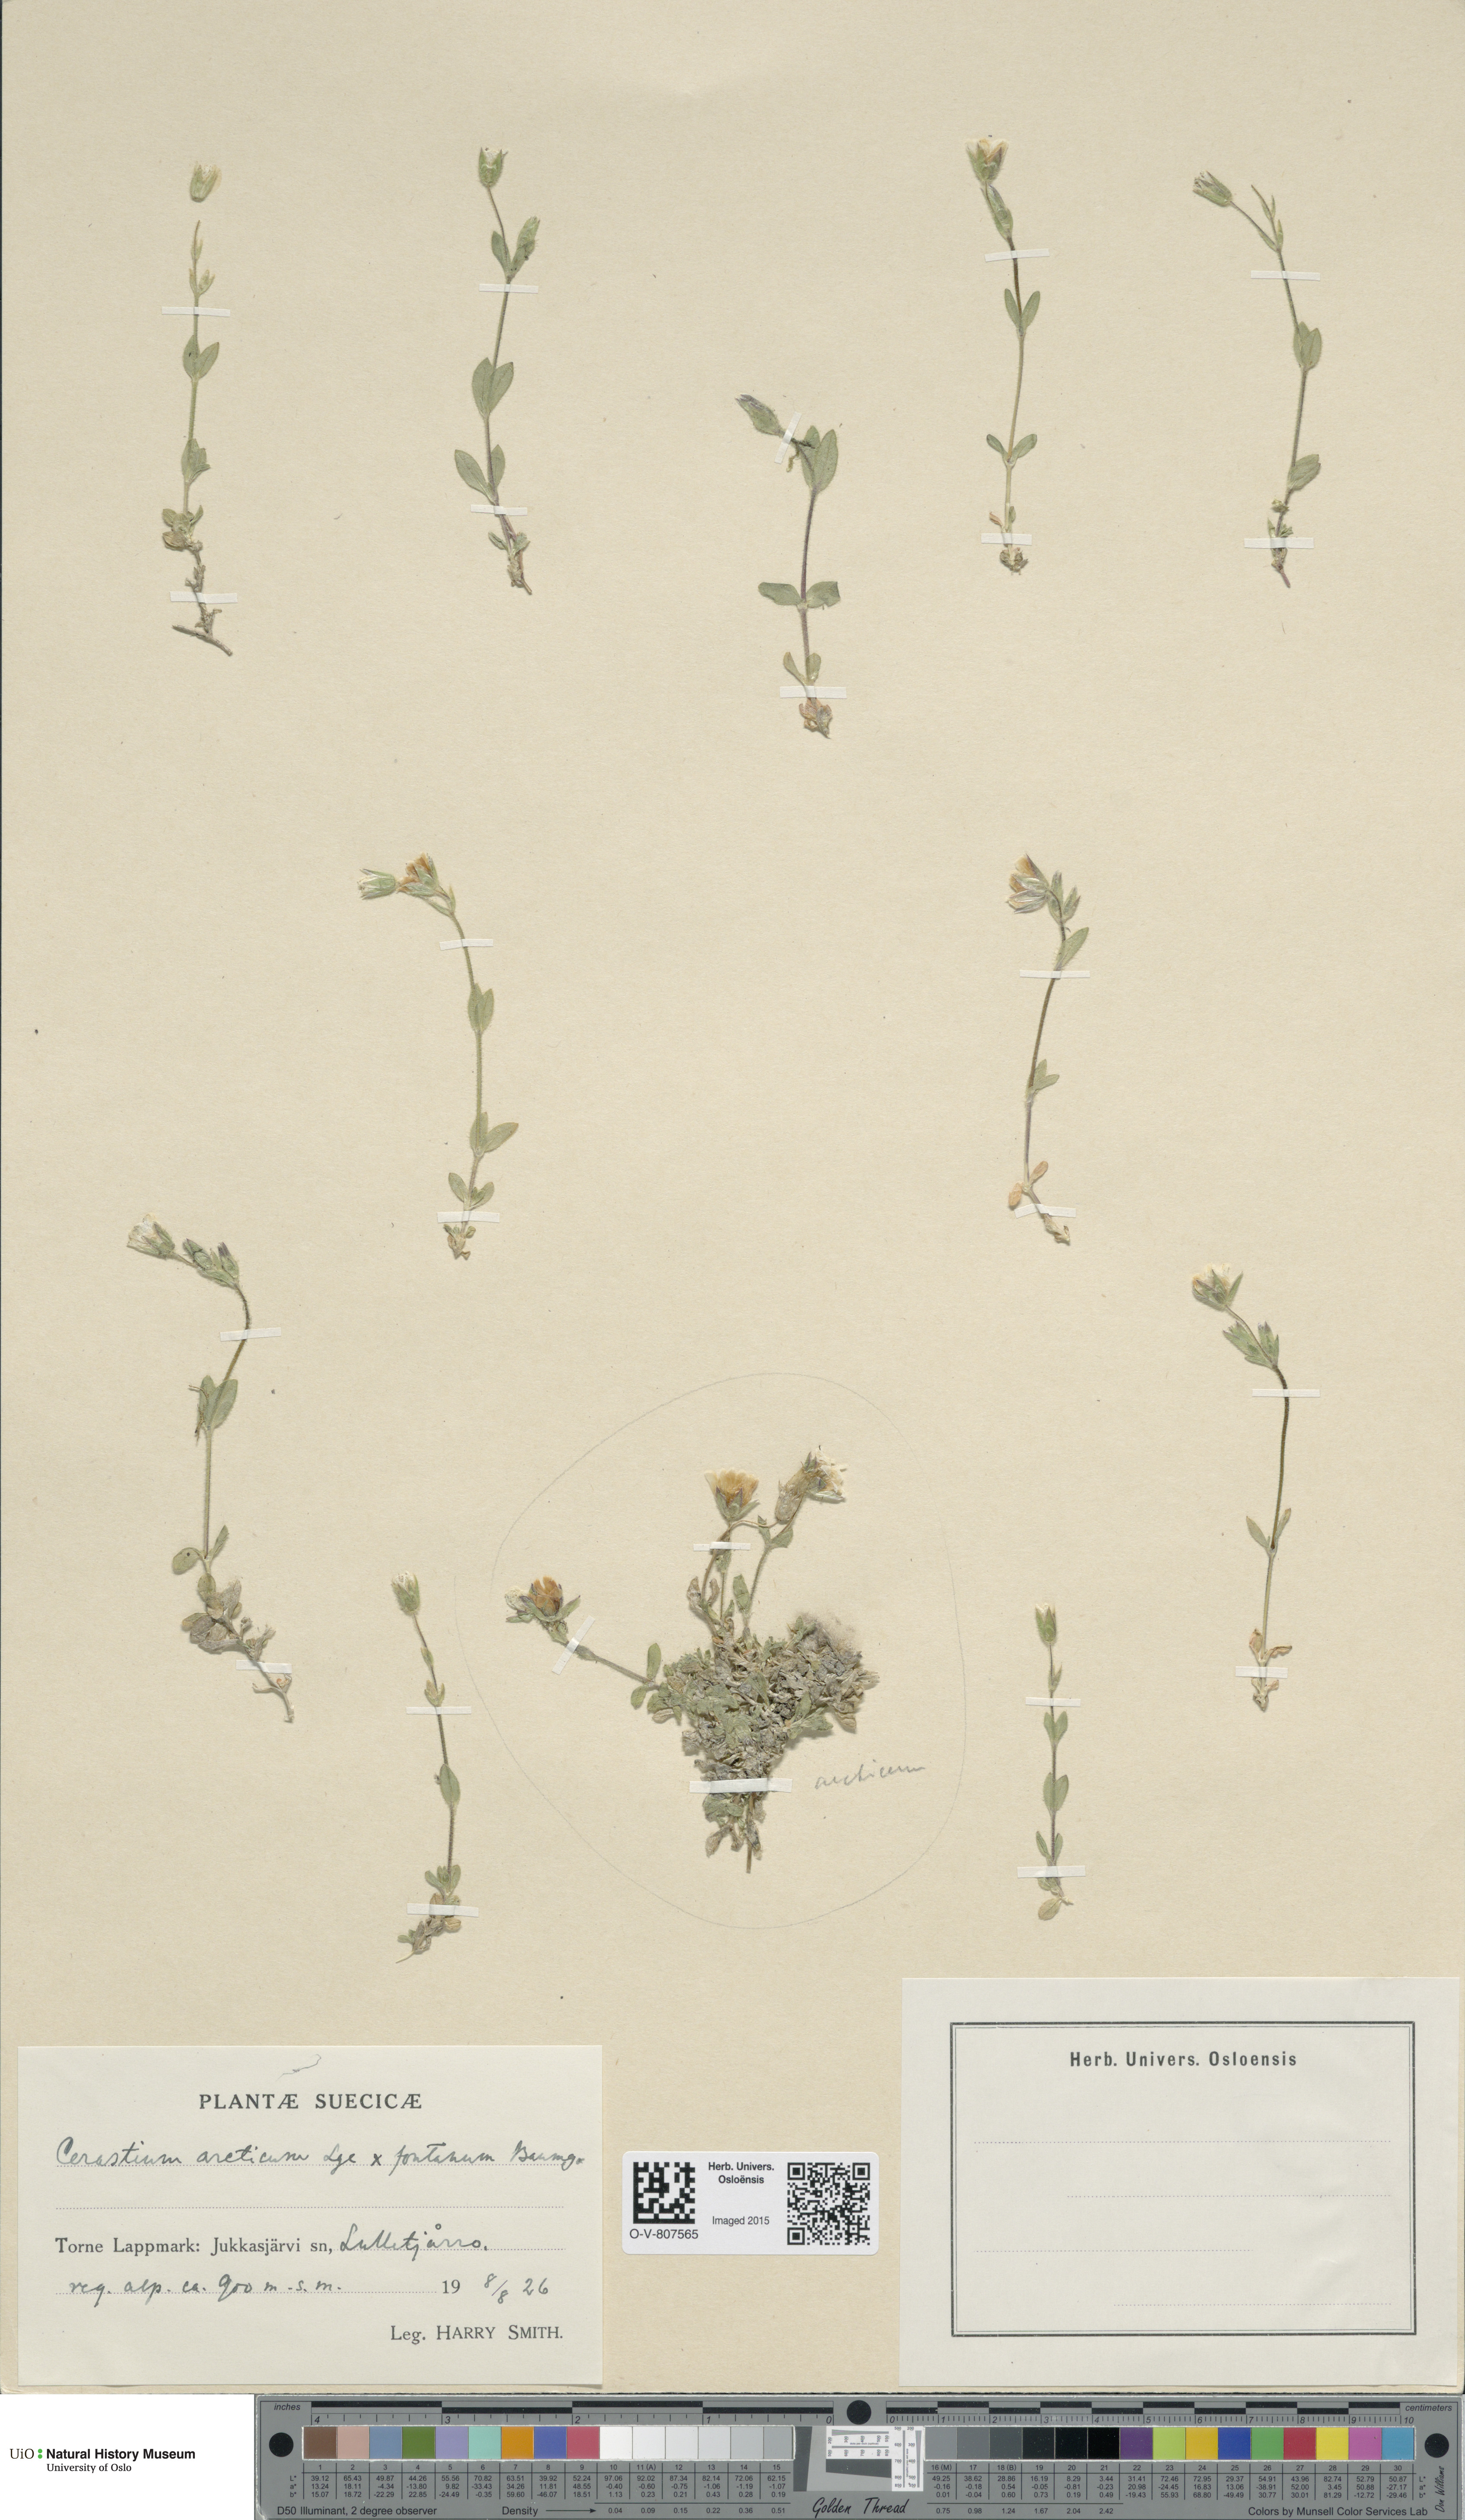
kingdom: Plantae
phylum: Tracheophyta
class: Magnoliopsida
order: Caryophyllales
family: Caryophyllaceae
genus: Cerastium
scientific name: Cerastium
